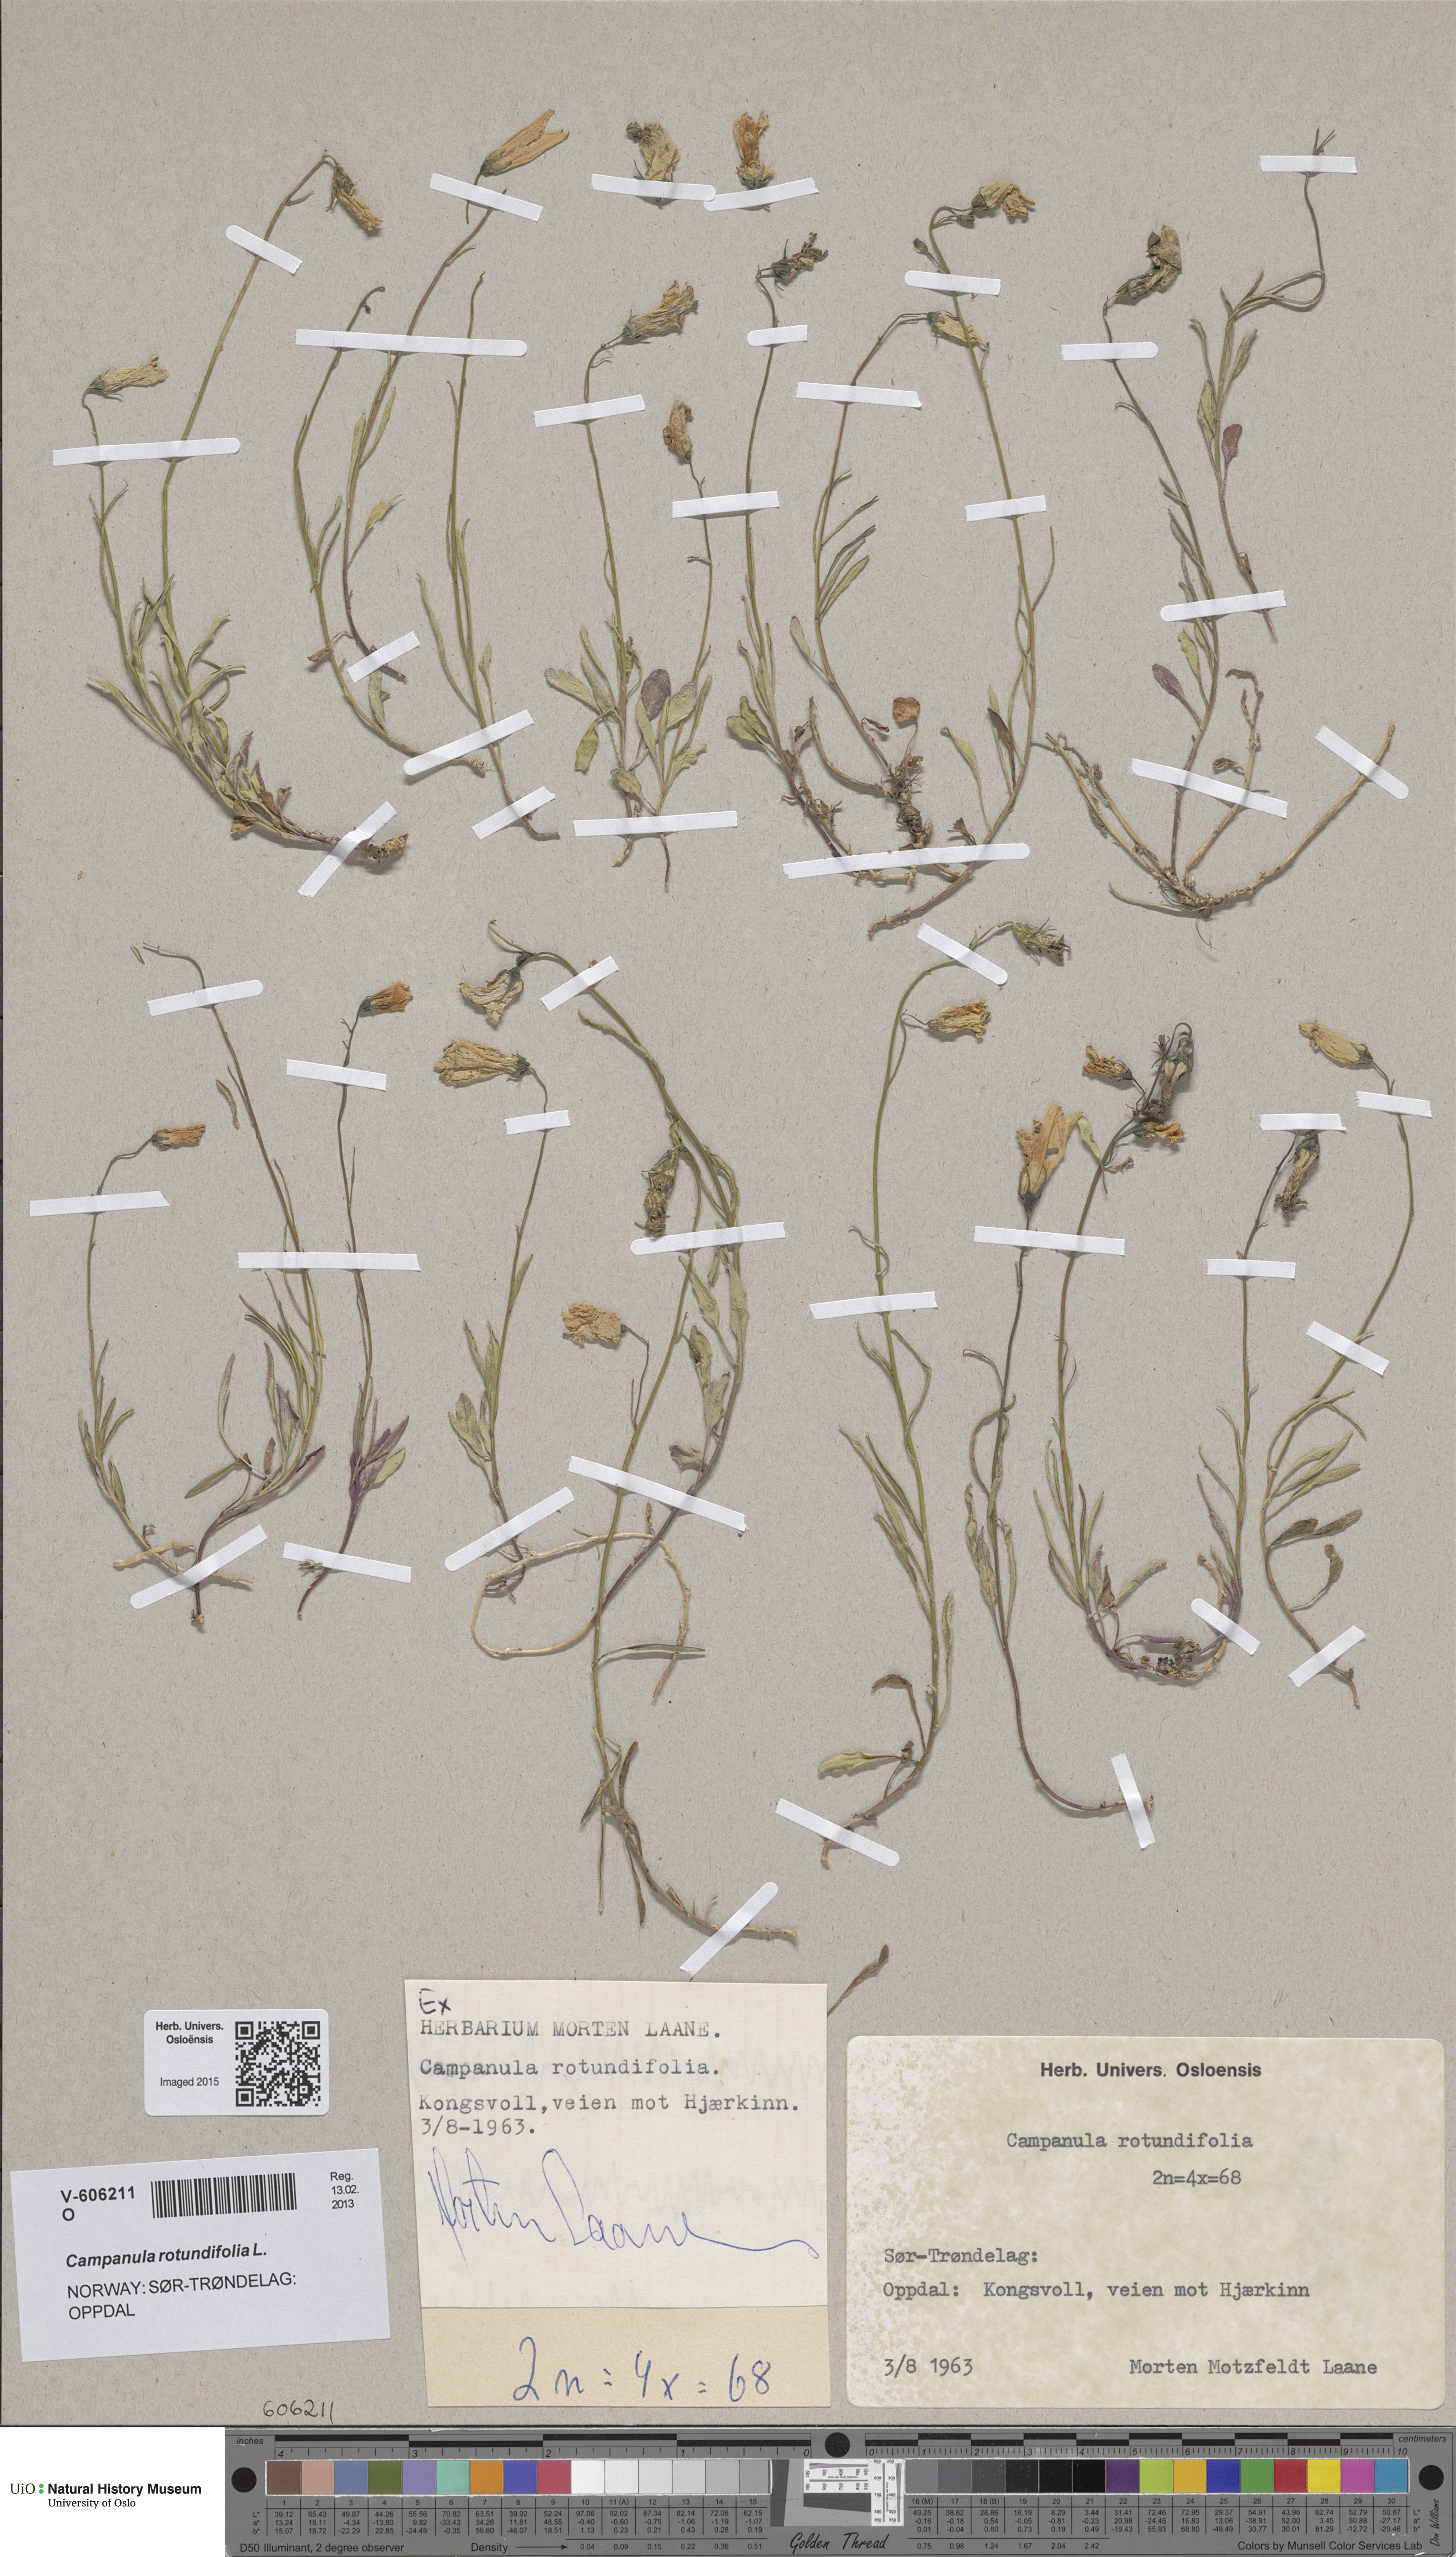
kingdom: Plantae
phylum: Tracheophyta
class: Magnoliopsida
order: Asterales
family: Campanulaceae
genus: Campanula
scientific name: Campanula rotundifolia
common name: Harebell
